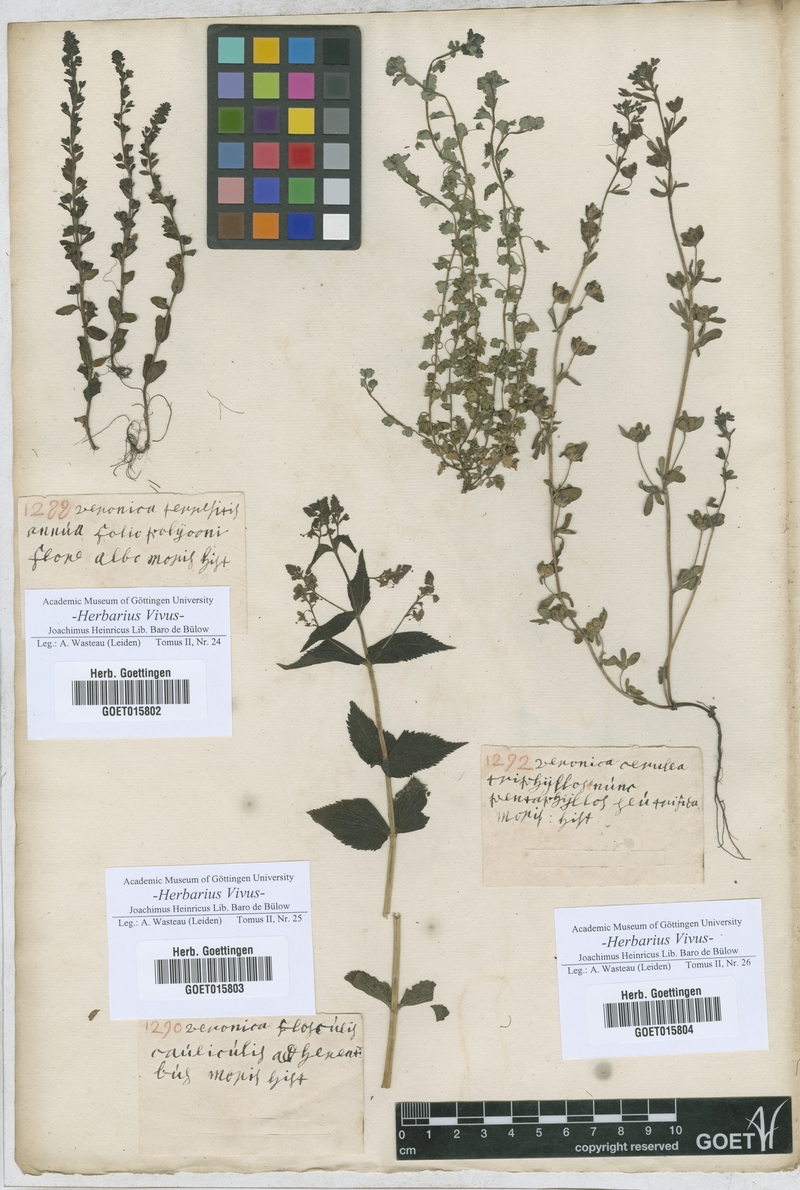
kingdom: Plantae
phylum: Tracheophyta
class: Magnoliopsida
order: Lamiales
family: Plantaginaceae
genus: Veronica
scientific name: Veronica peregrina
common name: Neckweed
